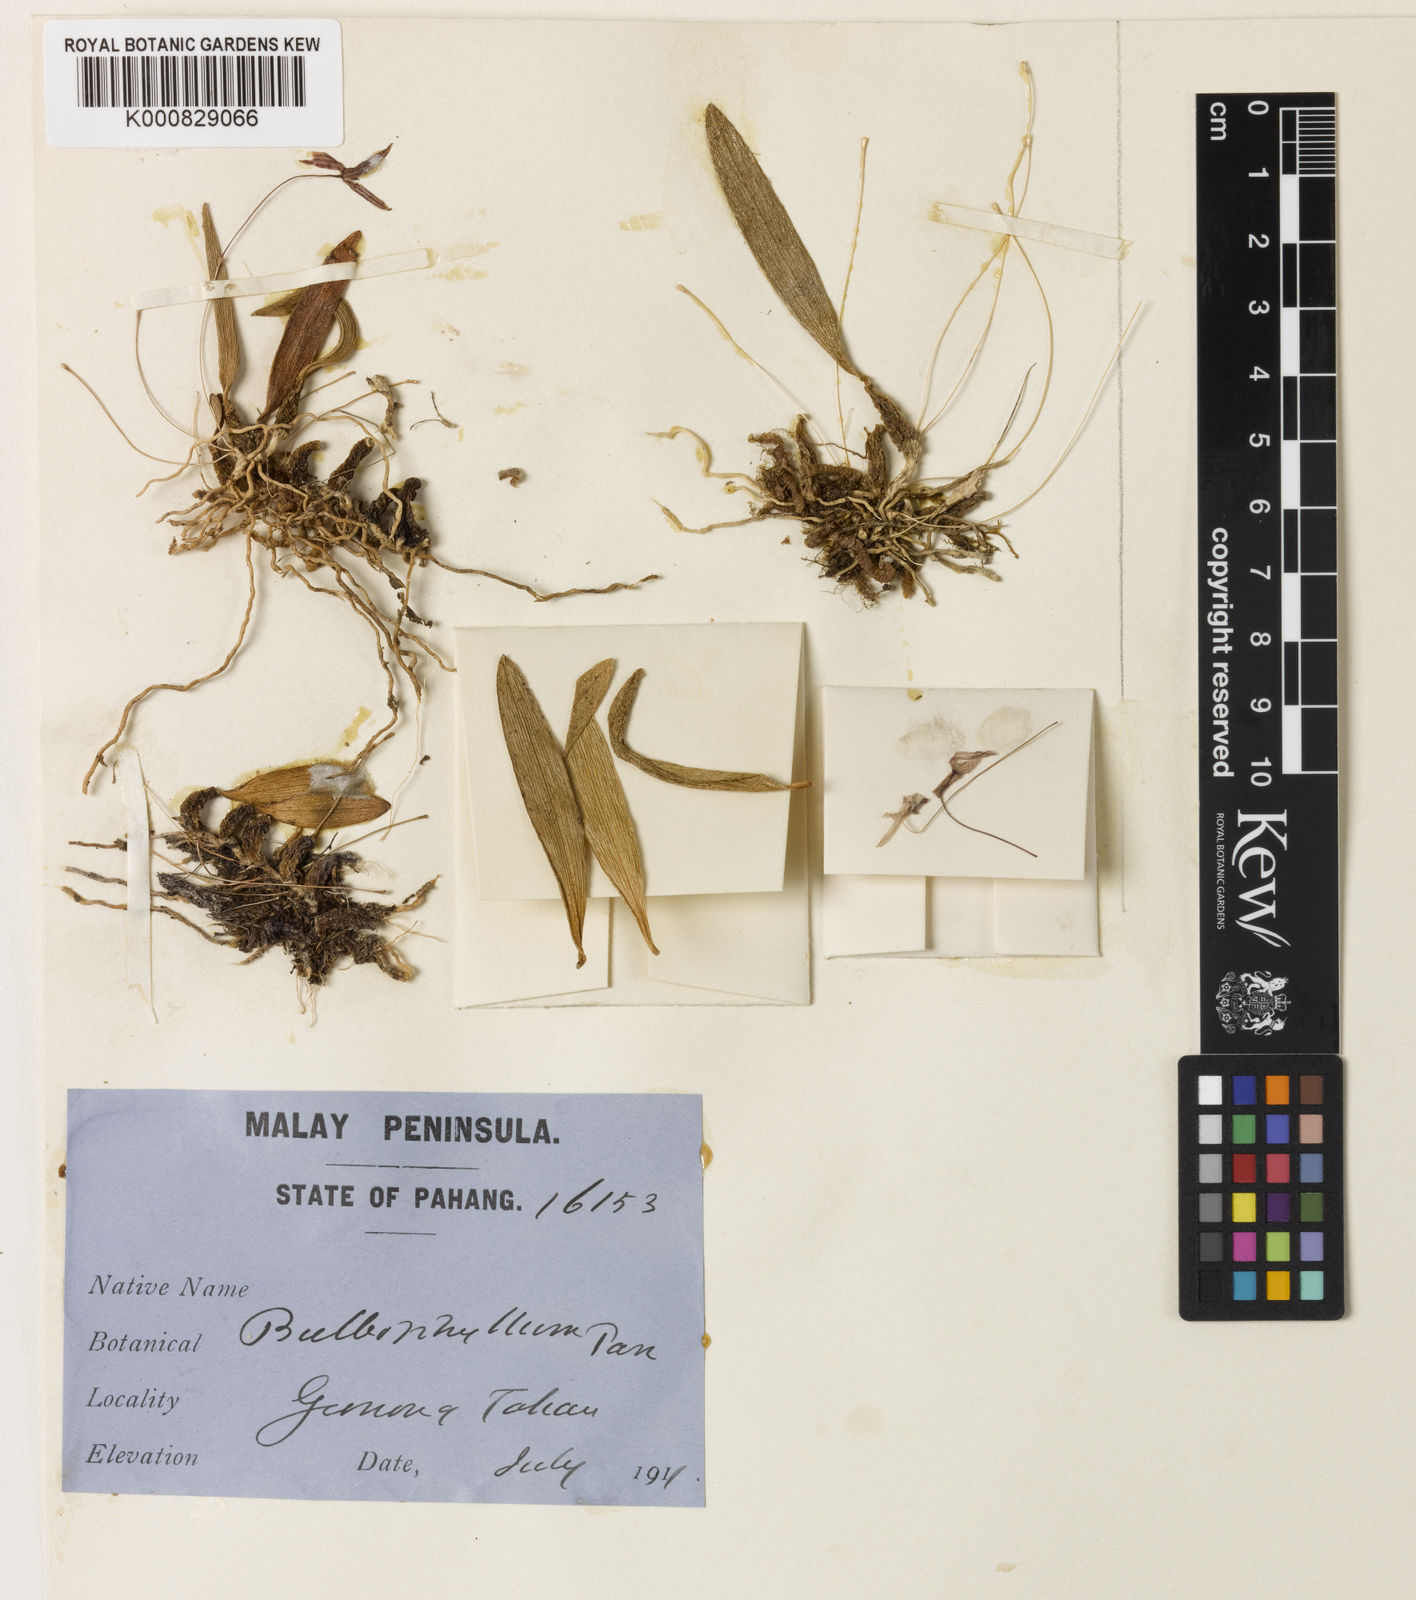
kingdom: Plantae
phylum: Tracheophyta
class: Liliopsida
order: Asparagales
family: Orchidaceae
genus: Bulbophyllum
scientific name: Bulbophyllum pan
